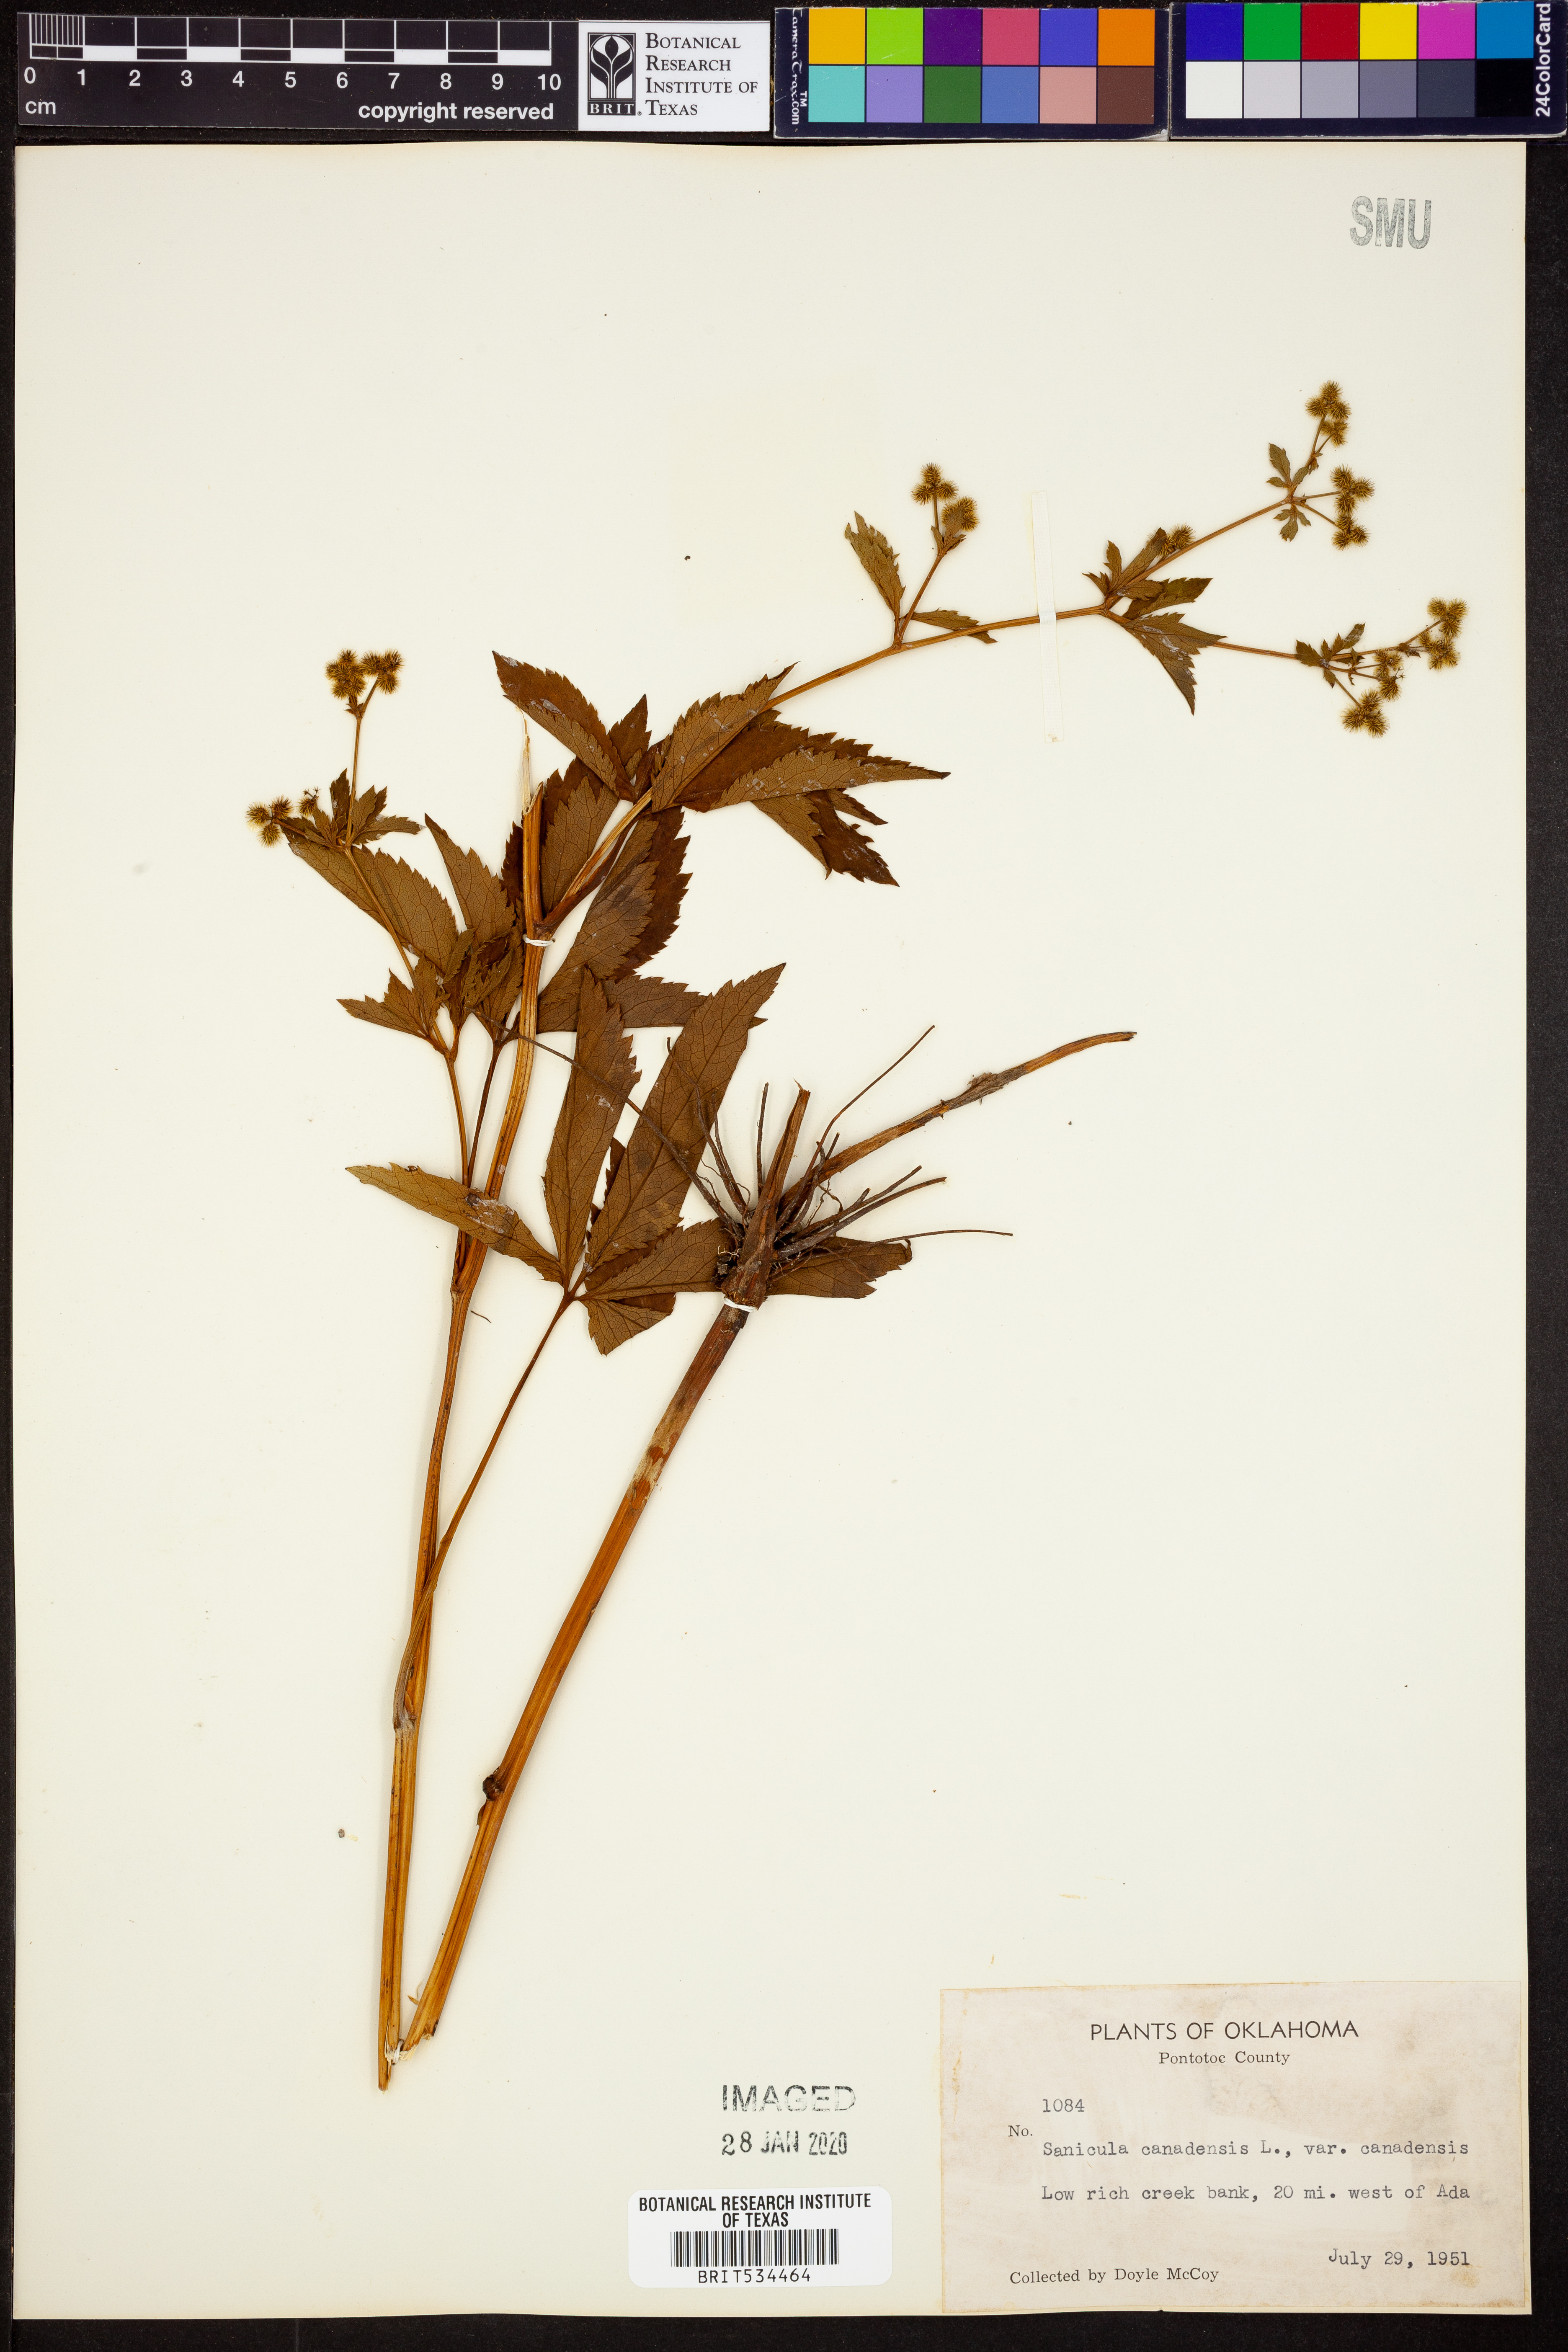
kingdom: Plantae
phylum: Tracheophyta
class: Magnoliopsida
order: Apiales
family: Apiaceae
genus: Sanicula
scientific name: Sanicula canadensis
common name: Canada sanicle
